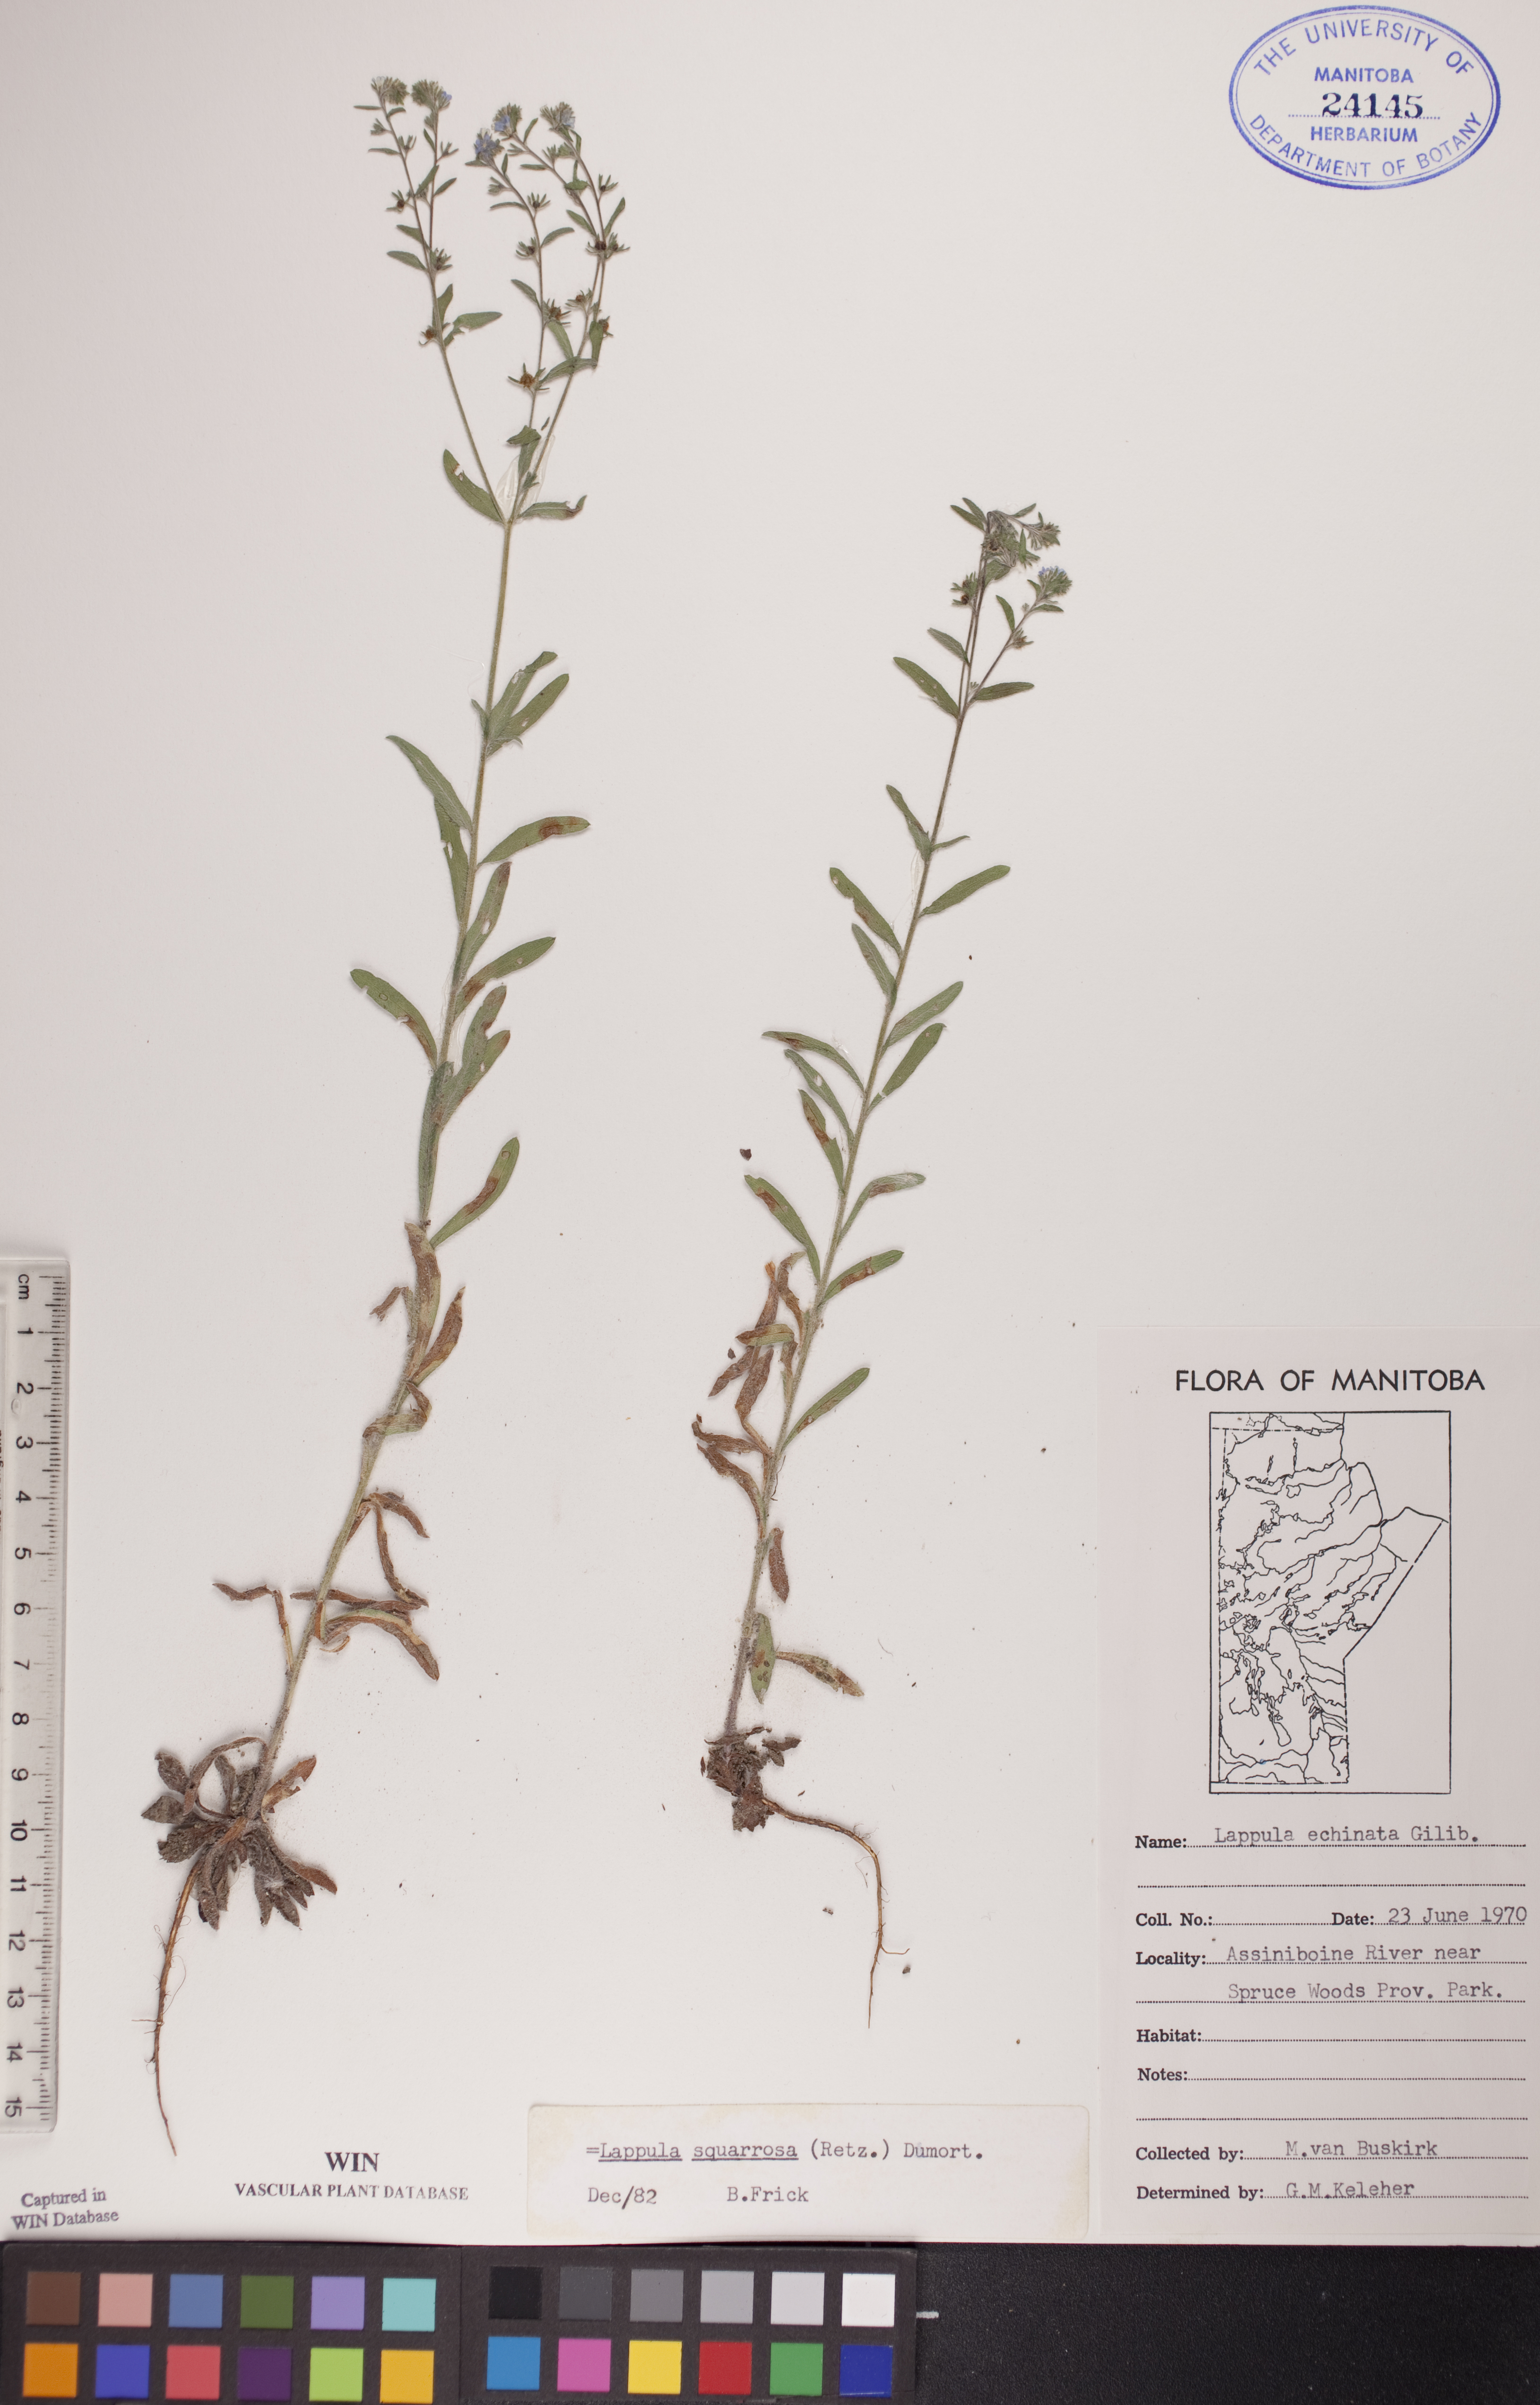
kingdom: Plantae
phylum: Tracheophyta
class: Magnoliopsida
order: Boraginales
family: Boraginaceae
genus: Lappula
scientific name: Lappula squarrosa
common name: European stickseed
